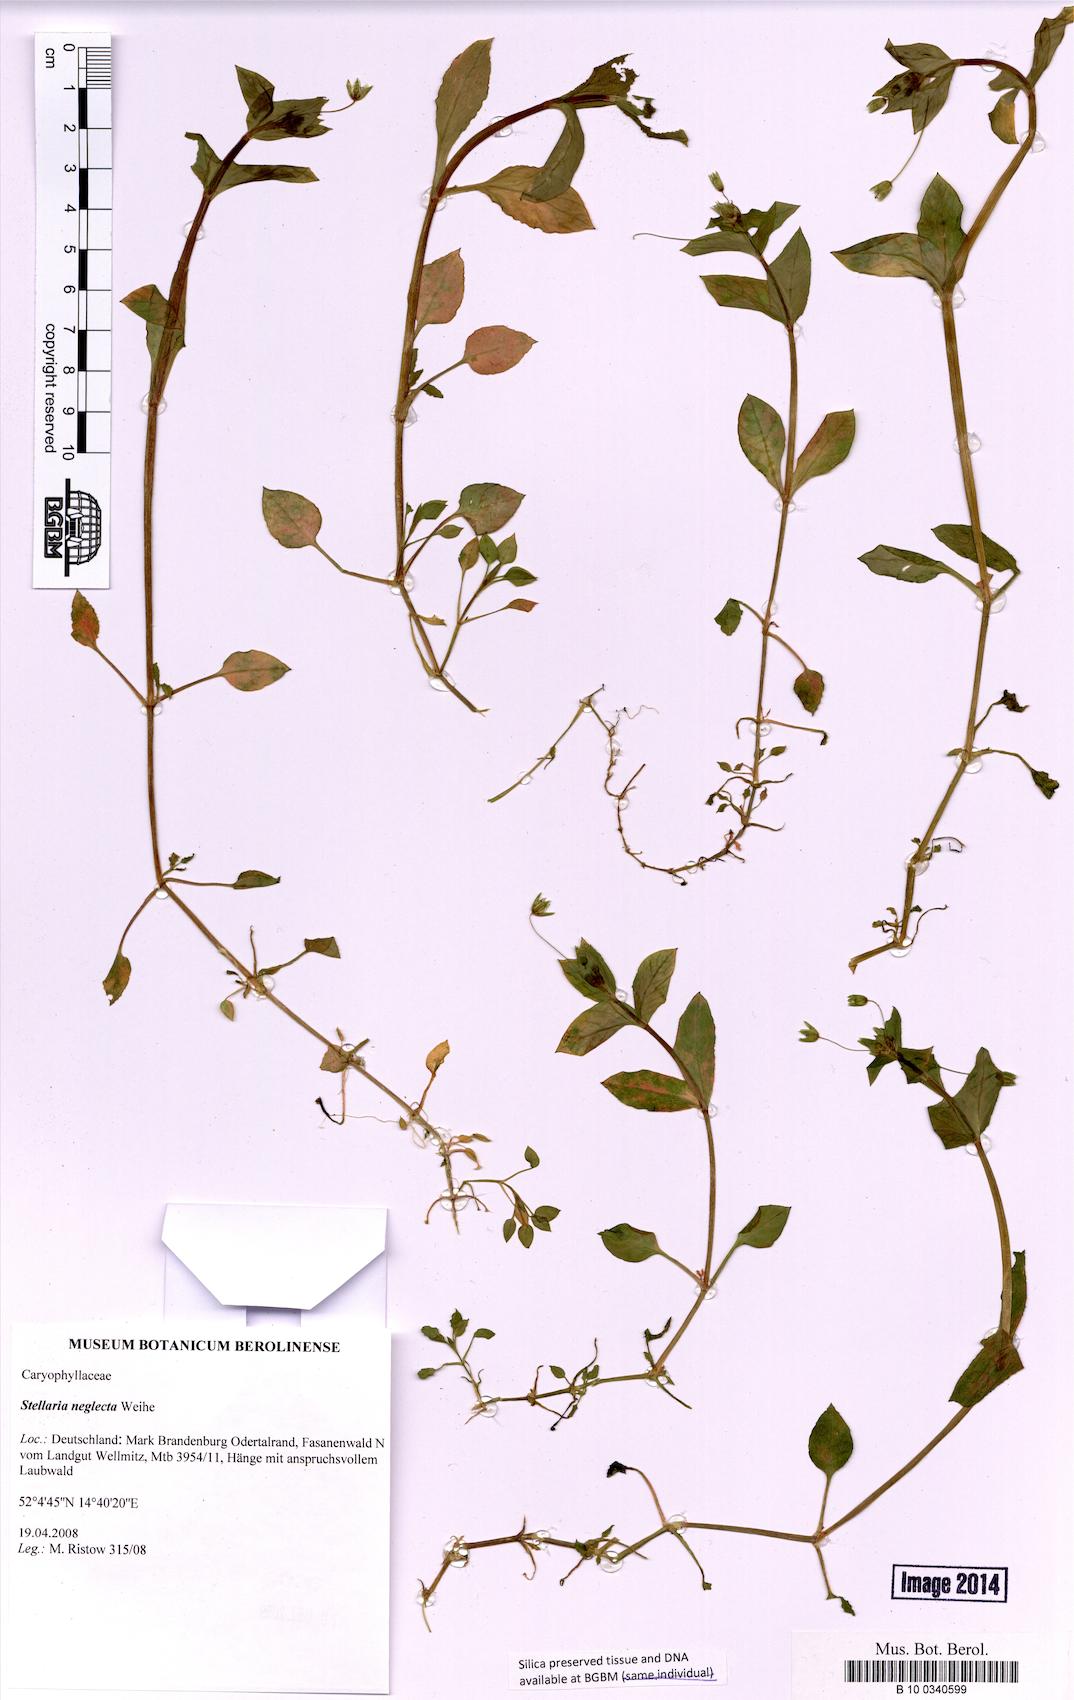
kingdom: Plantae
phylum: Tracheophyta
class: Magnoliopsida
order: Caryophyllales
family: Caryophyllaceae
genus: Stellaria
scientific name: Stellaria neglecta
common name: Greater chickweed
